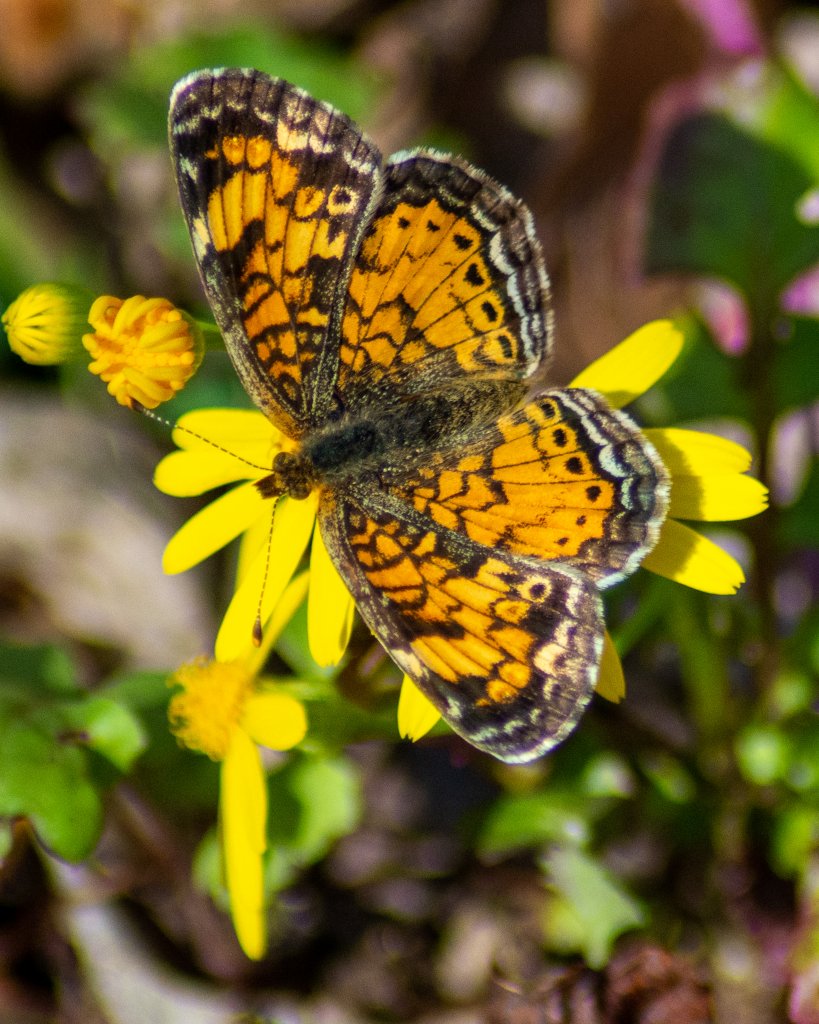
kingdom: Animalia
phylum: Arthropoda
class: Insecta
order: Lepidoptera
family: Nymphalidae
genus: Phyciodes
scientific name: Phyciodes tharos
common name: Pearl Crescent
